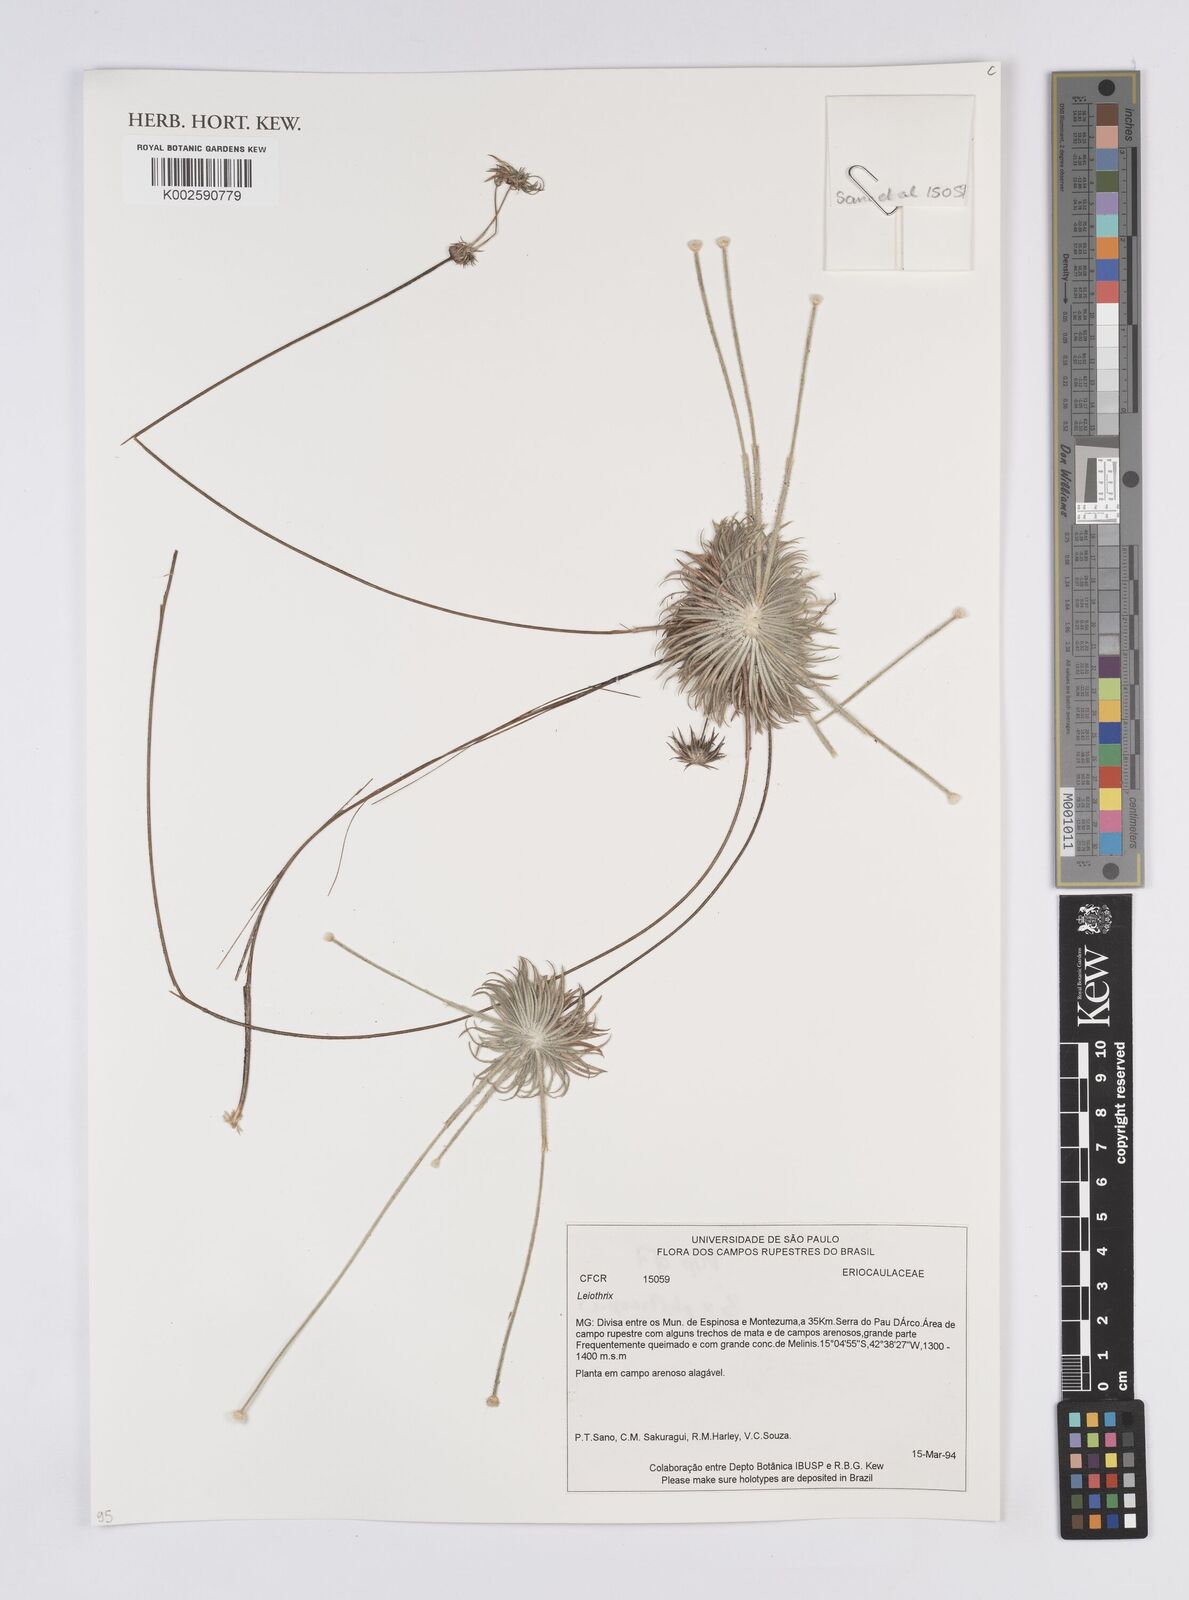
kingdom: Plantae
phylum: Tracheophyta
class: Liliopsida
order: Poales
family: Eriocaulaceae
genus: Leiothrix
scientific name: Leiothrix
